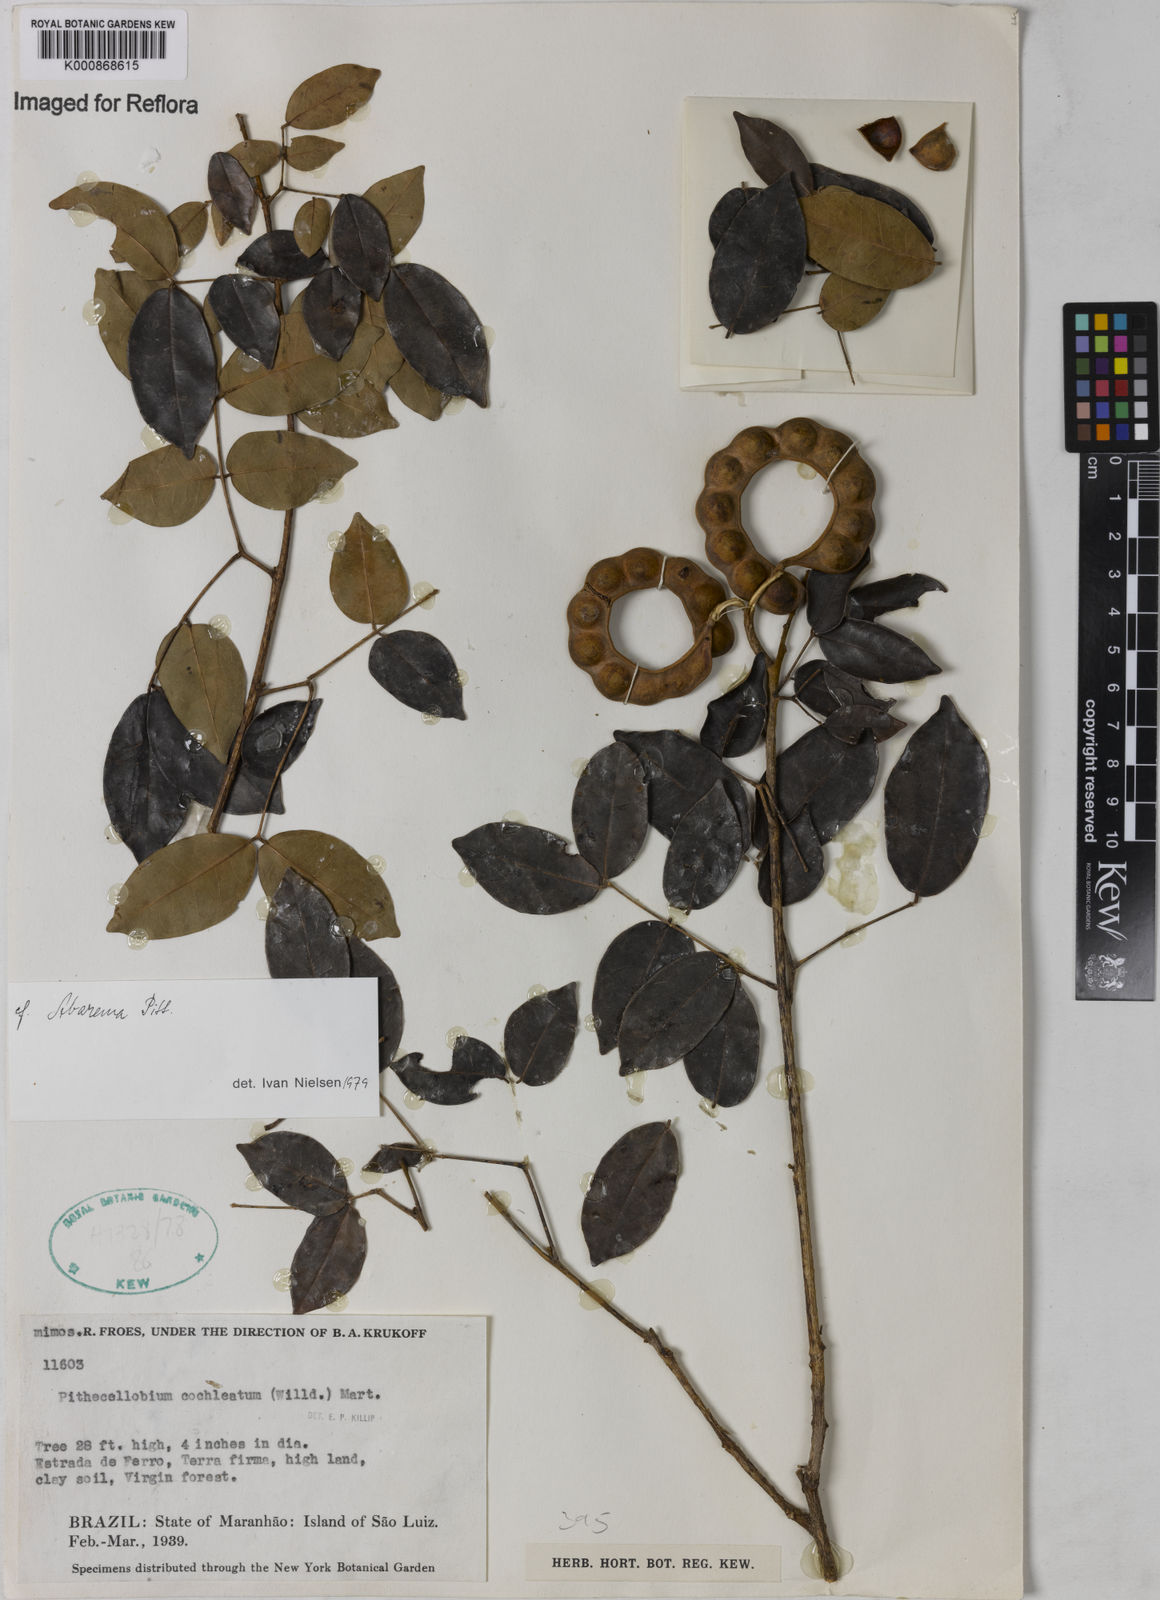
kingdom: Plantae
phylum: Tracheophyta
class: Magnoliopsida
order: Fabales
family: Fabaceae
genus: Jupunba
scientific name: Jupunba cochleata
